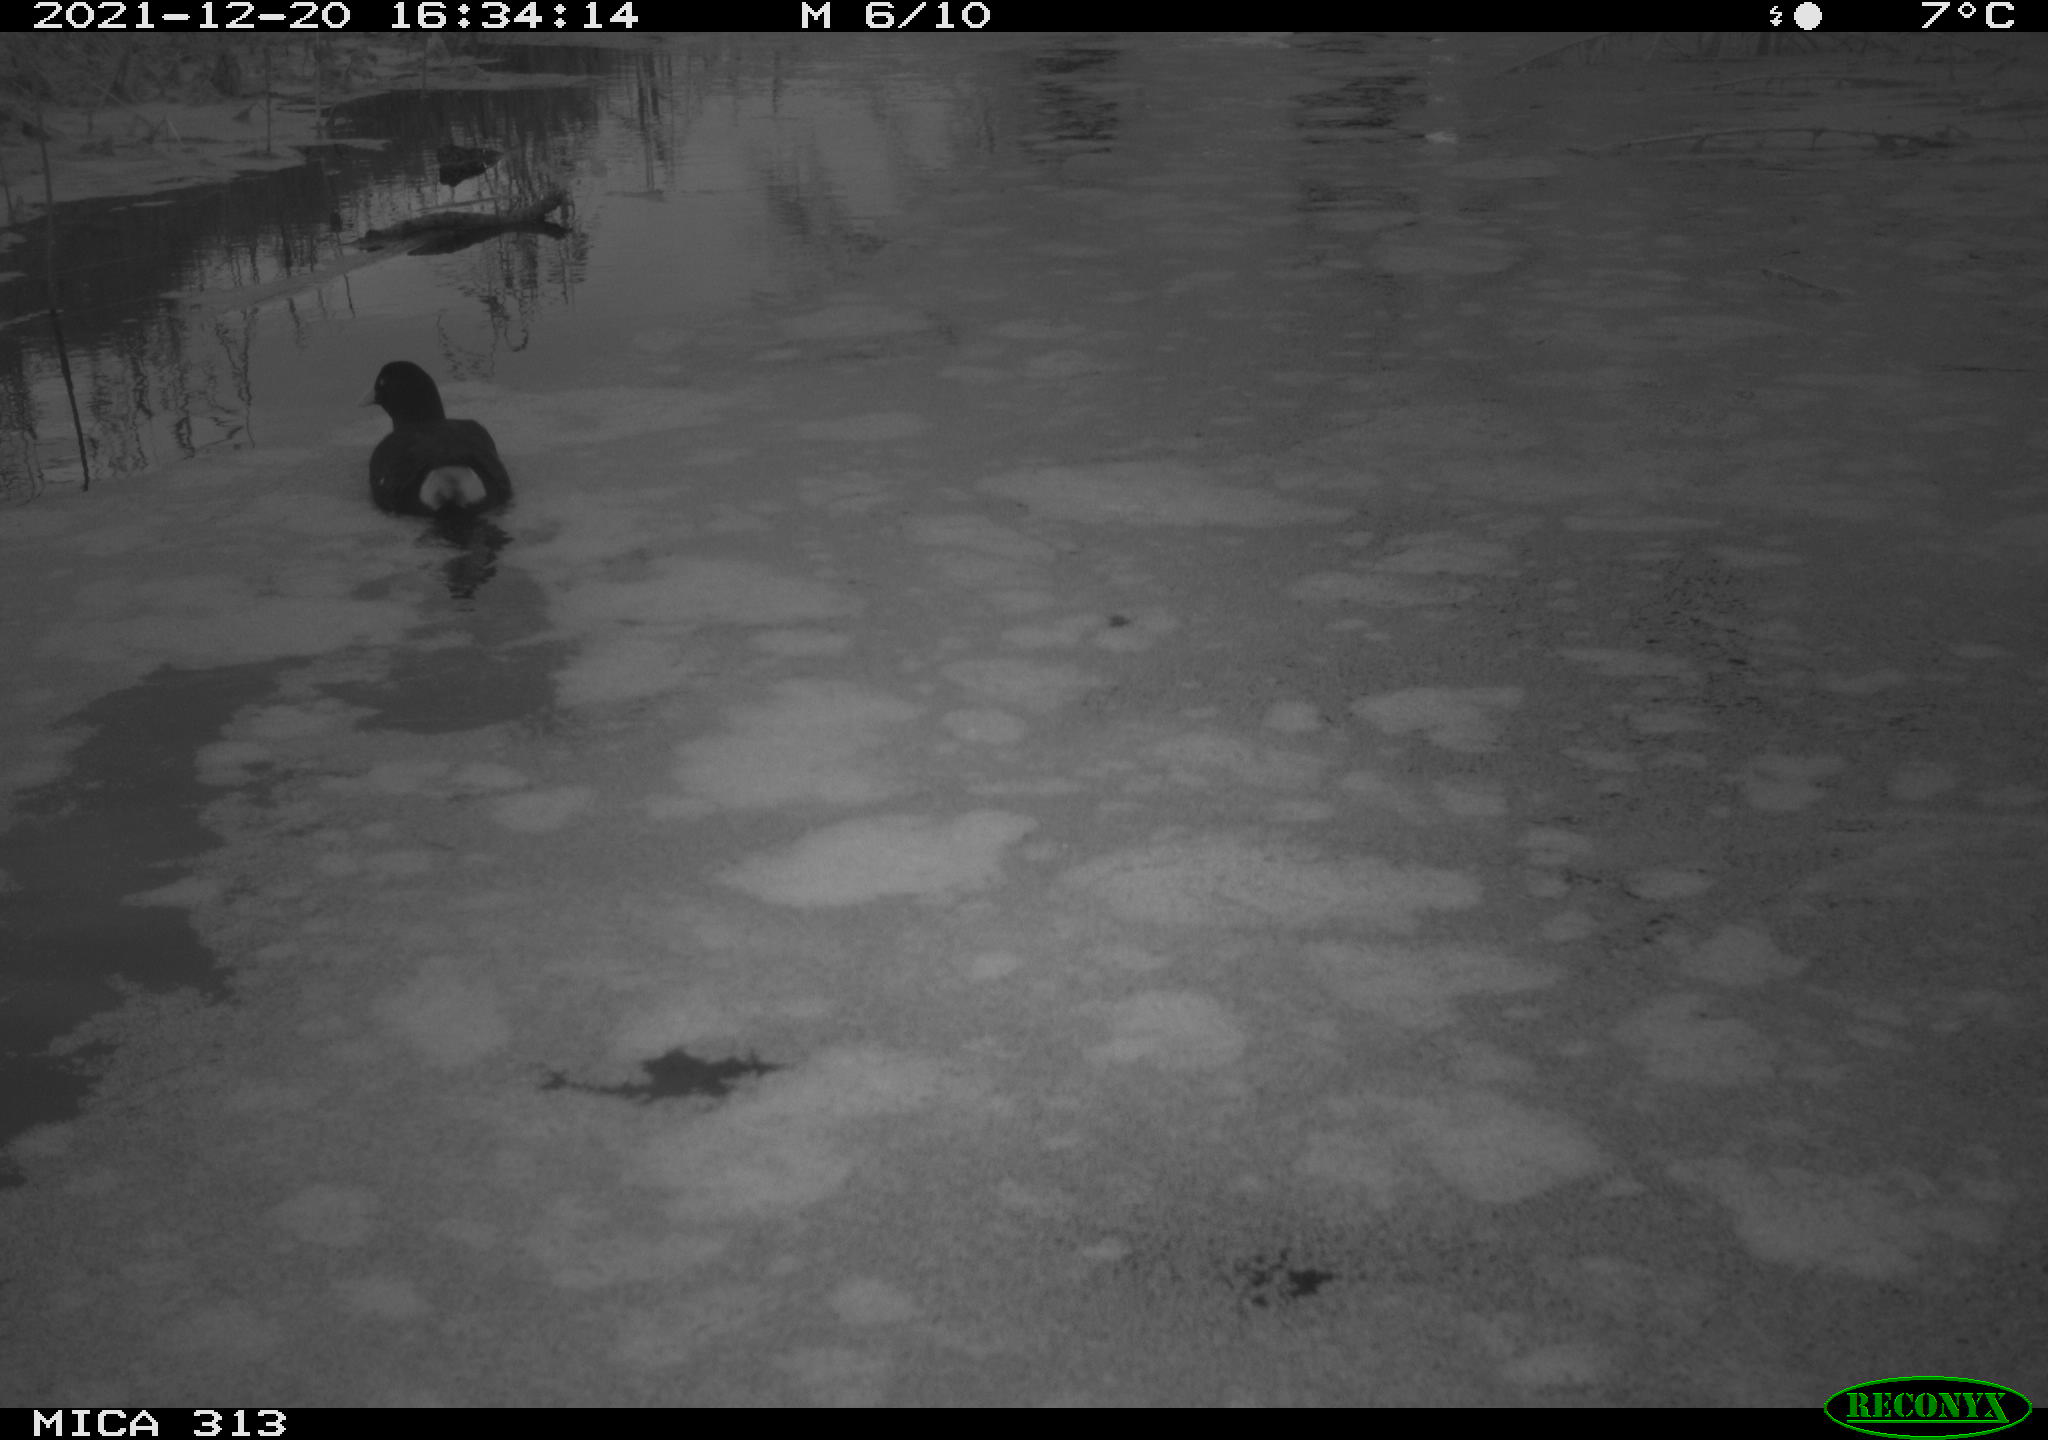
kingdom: Animalia
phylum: Chordata
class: Aves
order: Gruiformes
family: Rallidae
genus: Gallinula
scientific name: Gallinula chloropus
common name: Common moorhen
